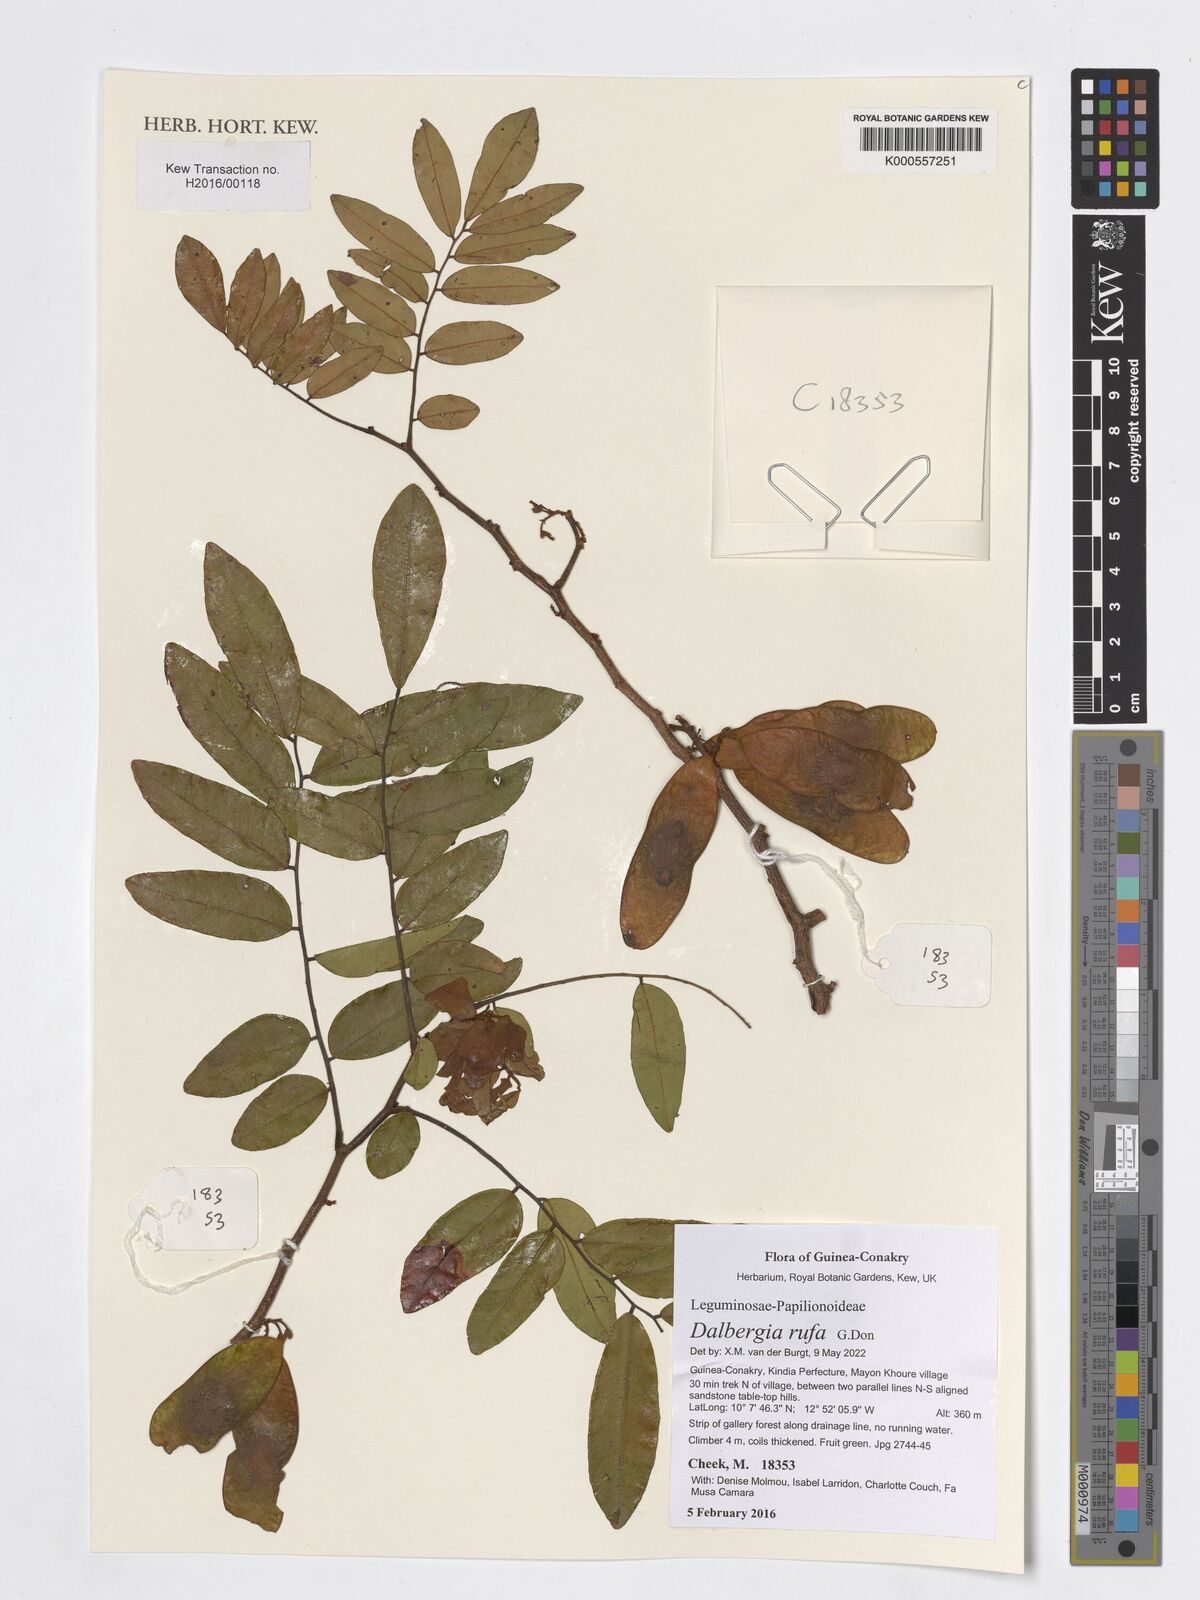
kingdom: Plantae
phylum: Tracheophyta
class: Magnoliopsida
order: Fabales
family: Fabaceae
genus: Dalbergia
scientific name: Dalbergia rufa
